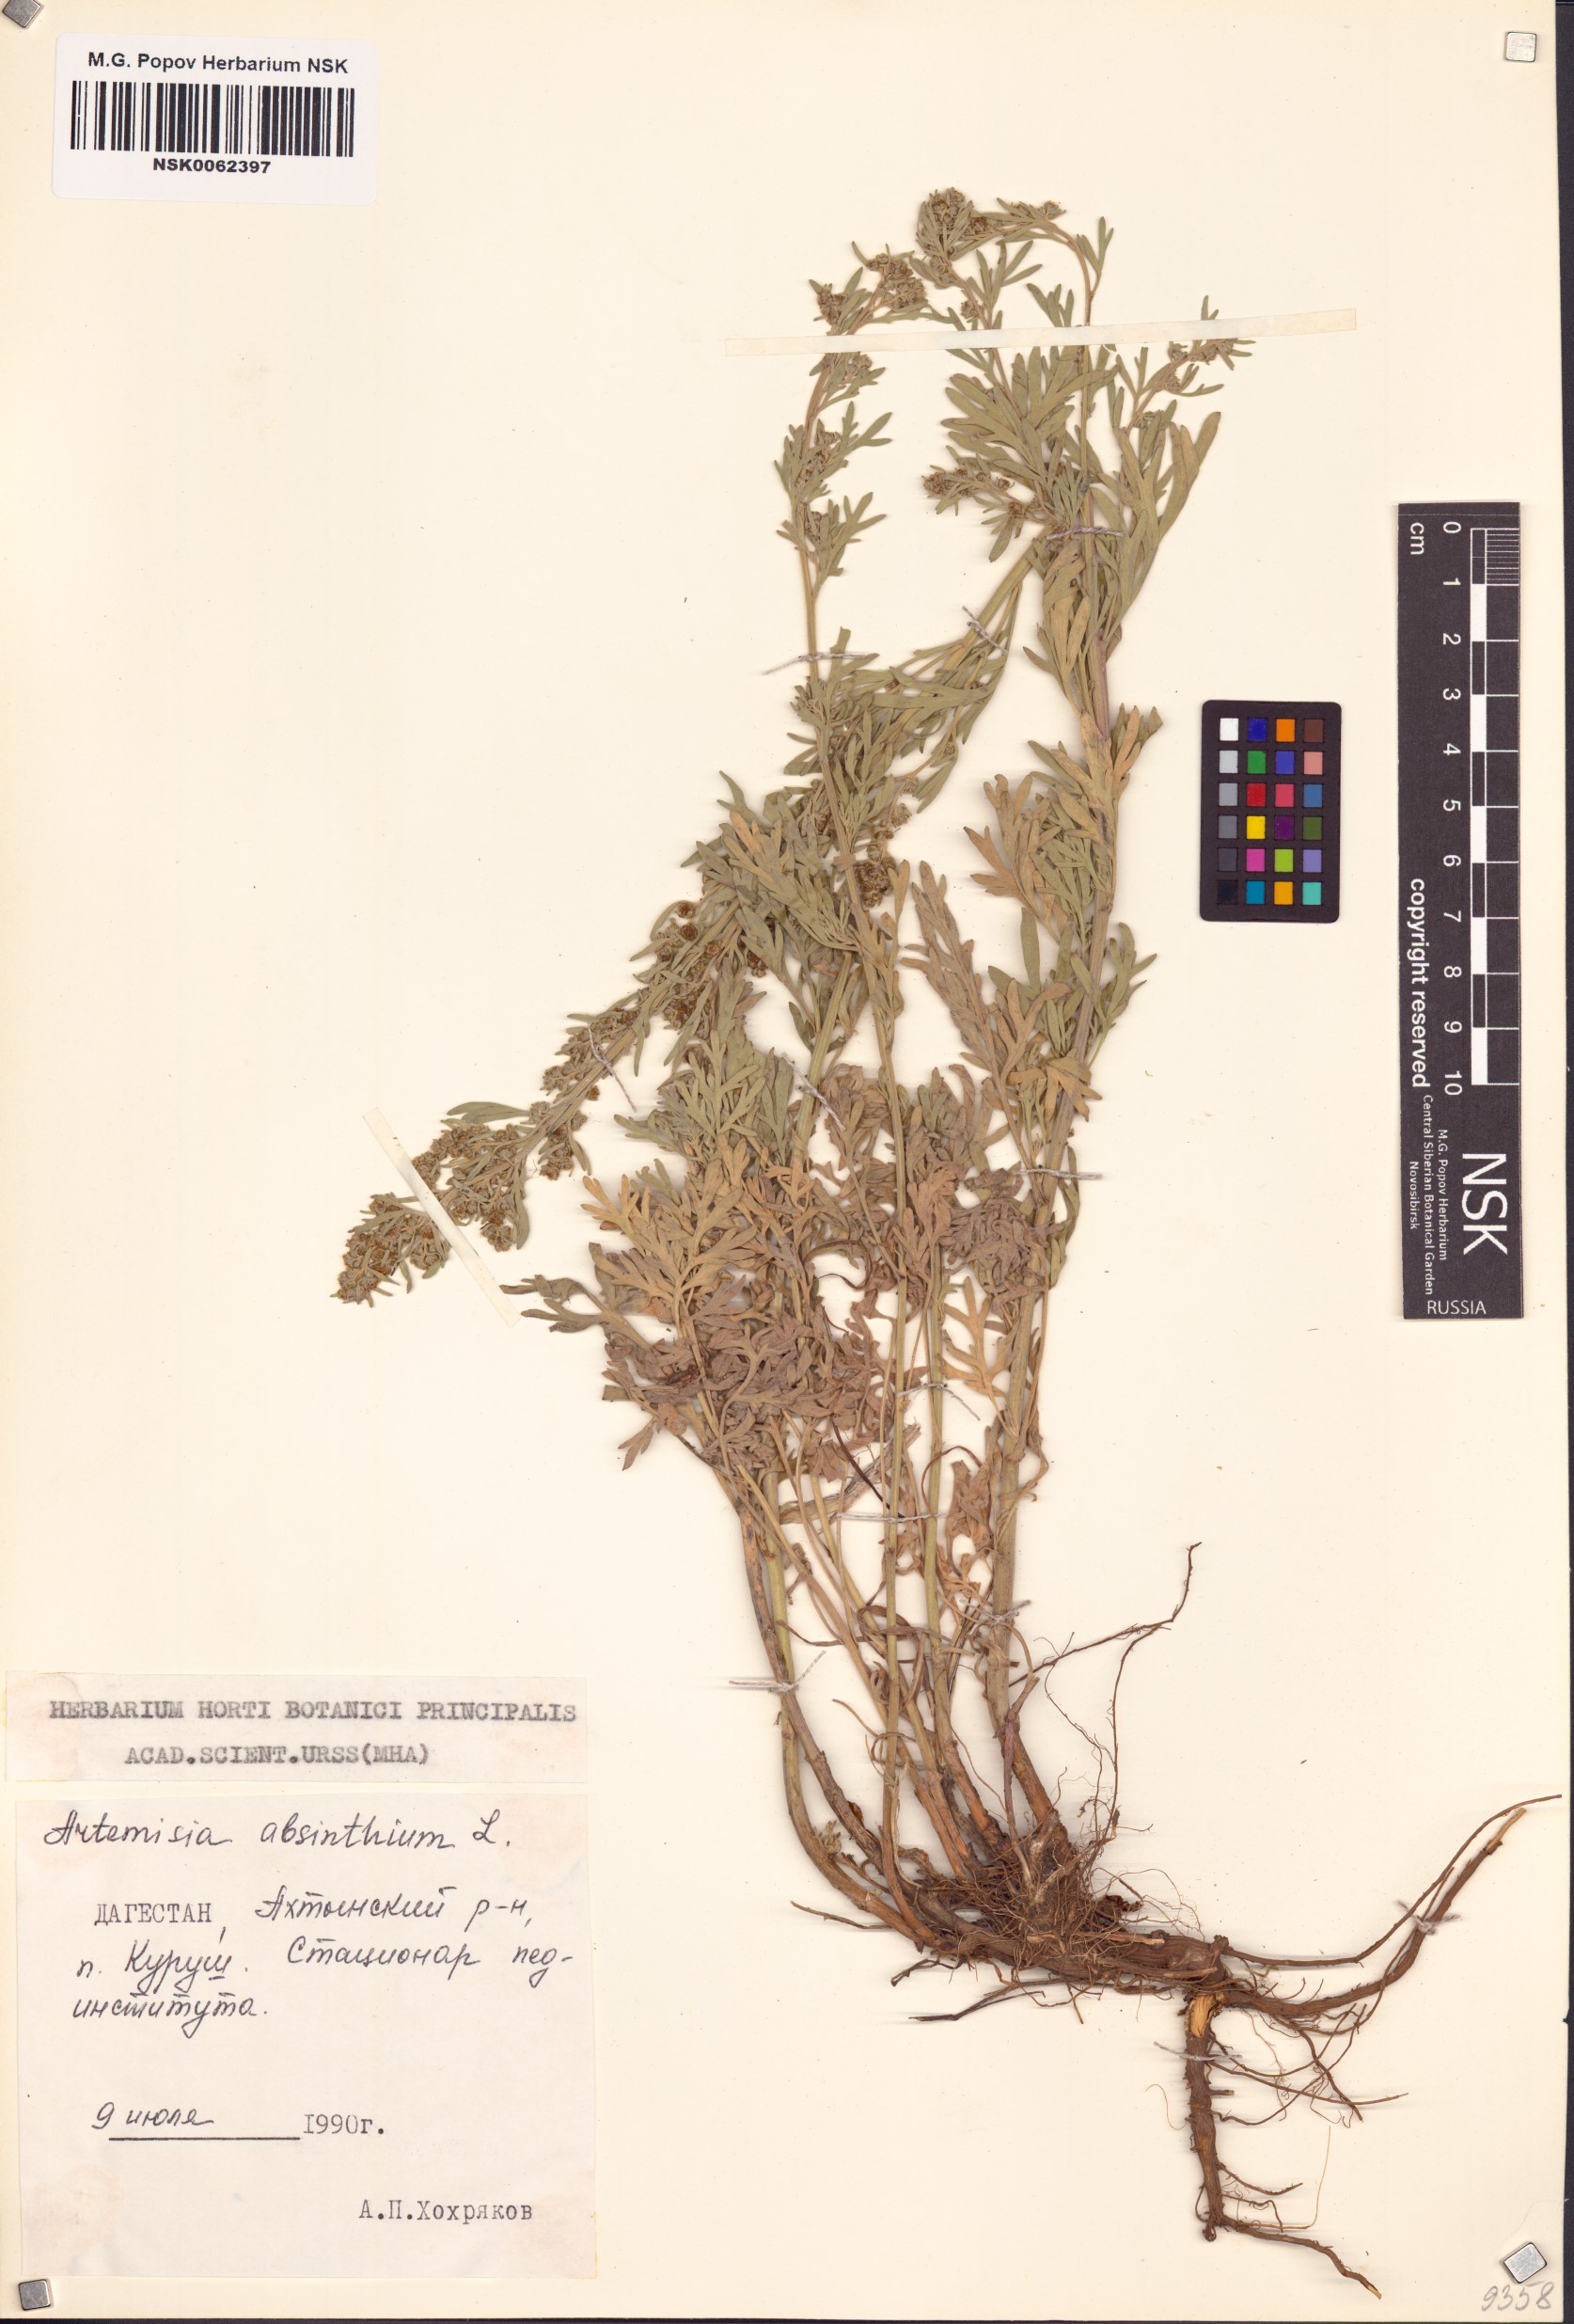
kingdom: Plantae
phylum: Tracheophyta
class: Magnoliopsida
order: Asterales
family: Asteraceae
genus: Artemisia
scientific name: Artemisia absinthium
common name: Wormwood
